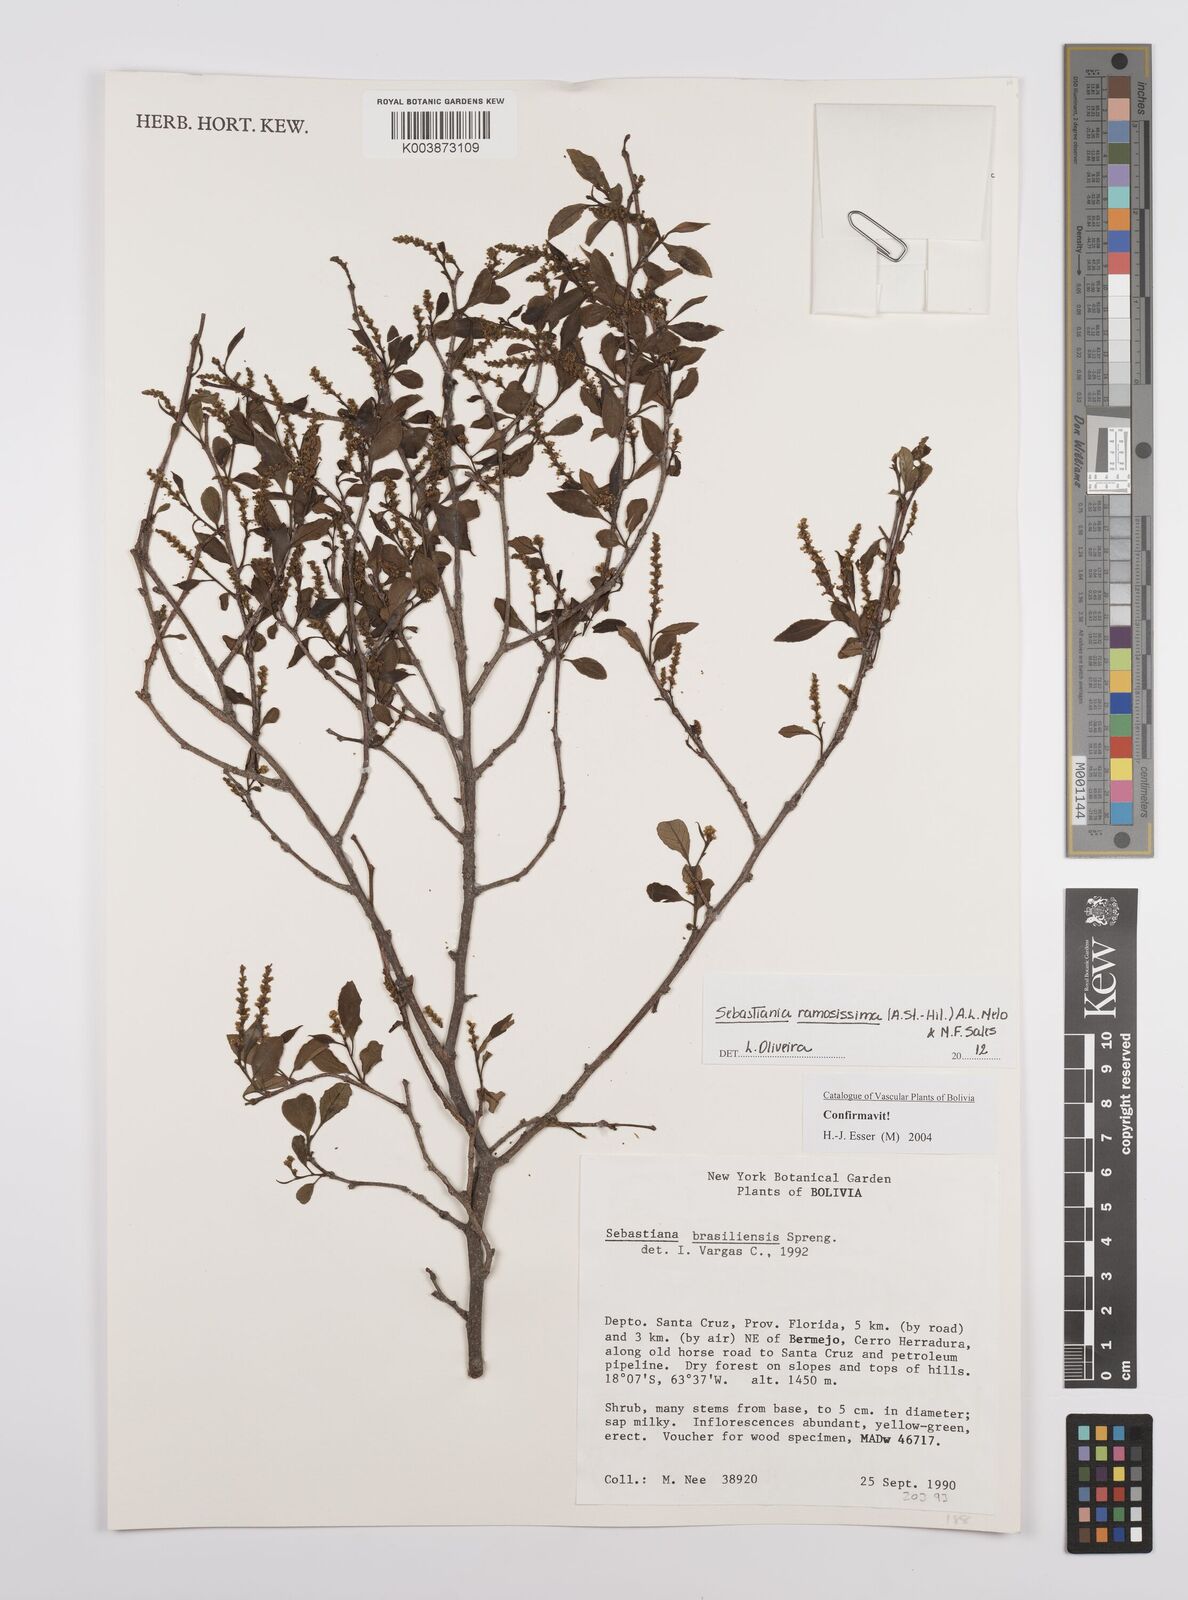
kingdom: Plantae
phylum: Tracheophyta
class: Magnoliopsida
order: Malpighiales
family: Euphorbiaceae
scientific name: Euphorbiaceae
